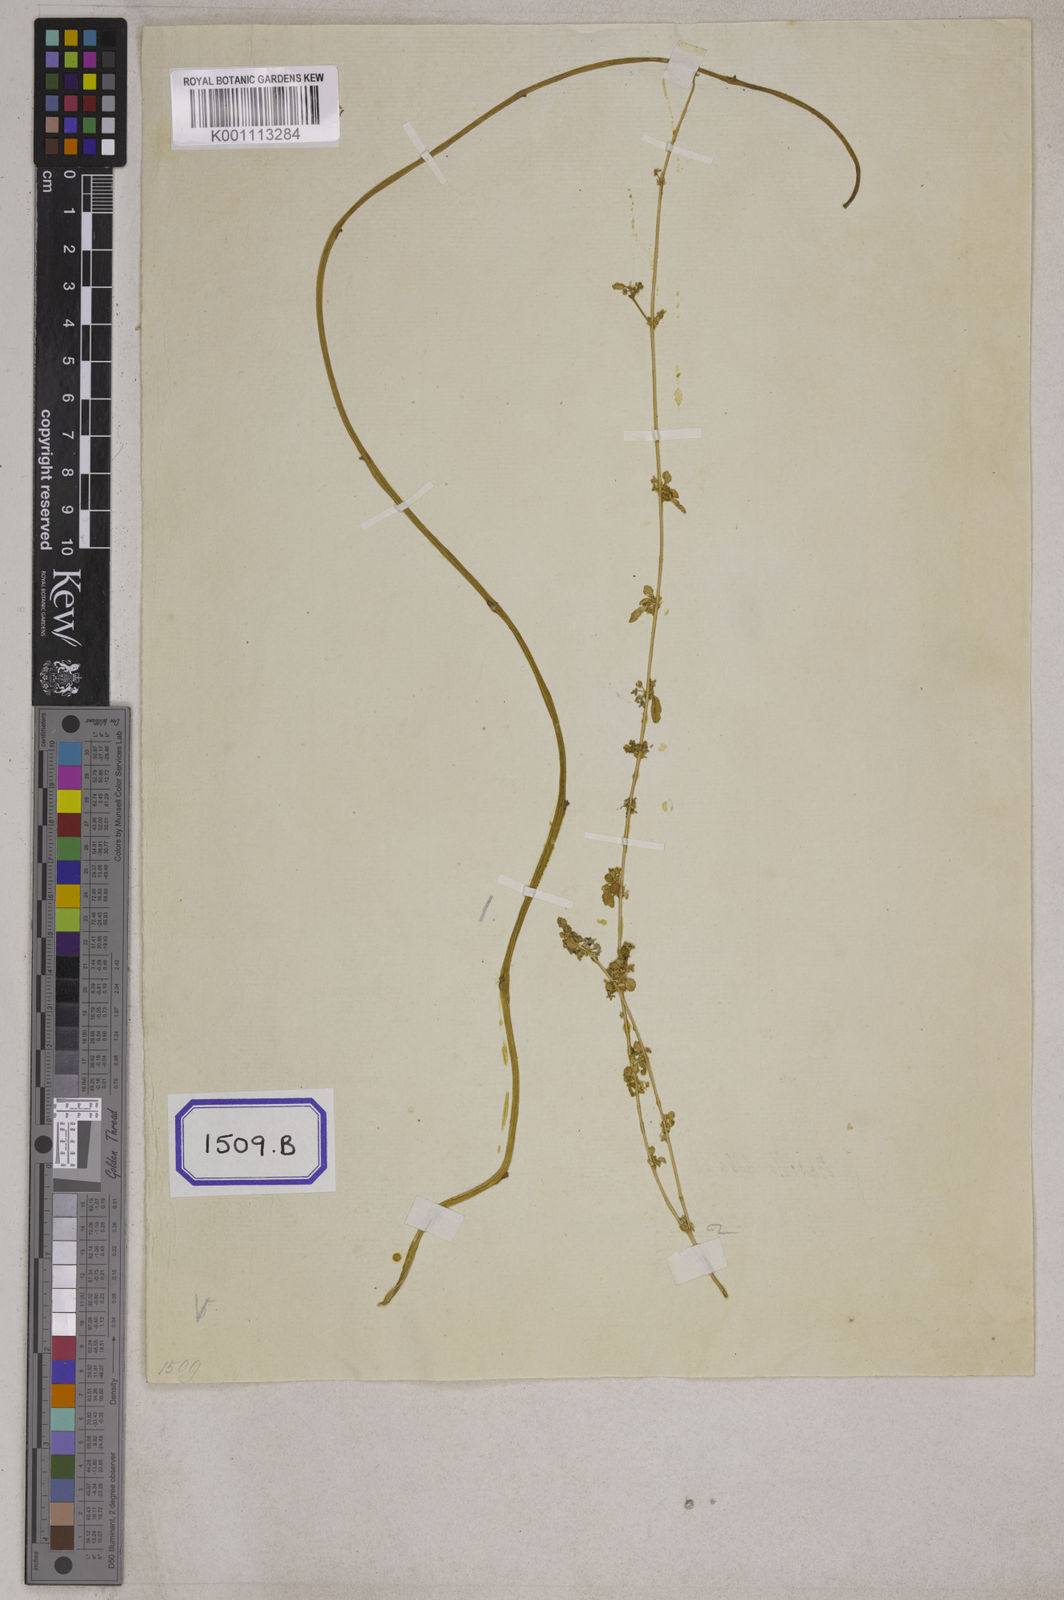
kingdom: Plantae
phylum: Tracheophyta
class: Magnoliopsida
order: Caryophyllales
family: Gisekiaceae
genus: Gisekia
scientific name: Gisekia
